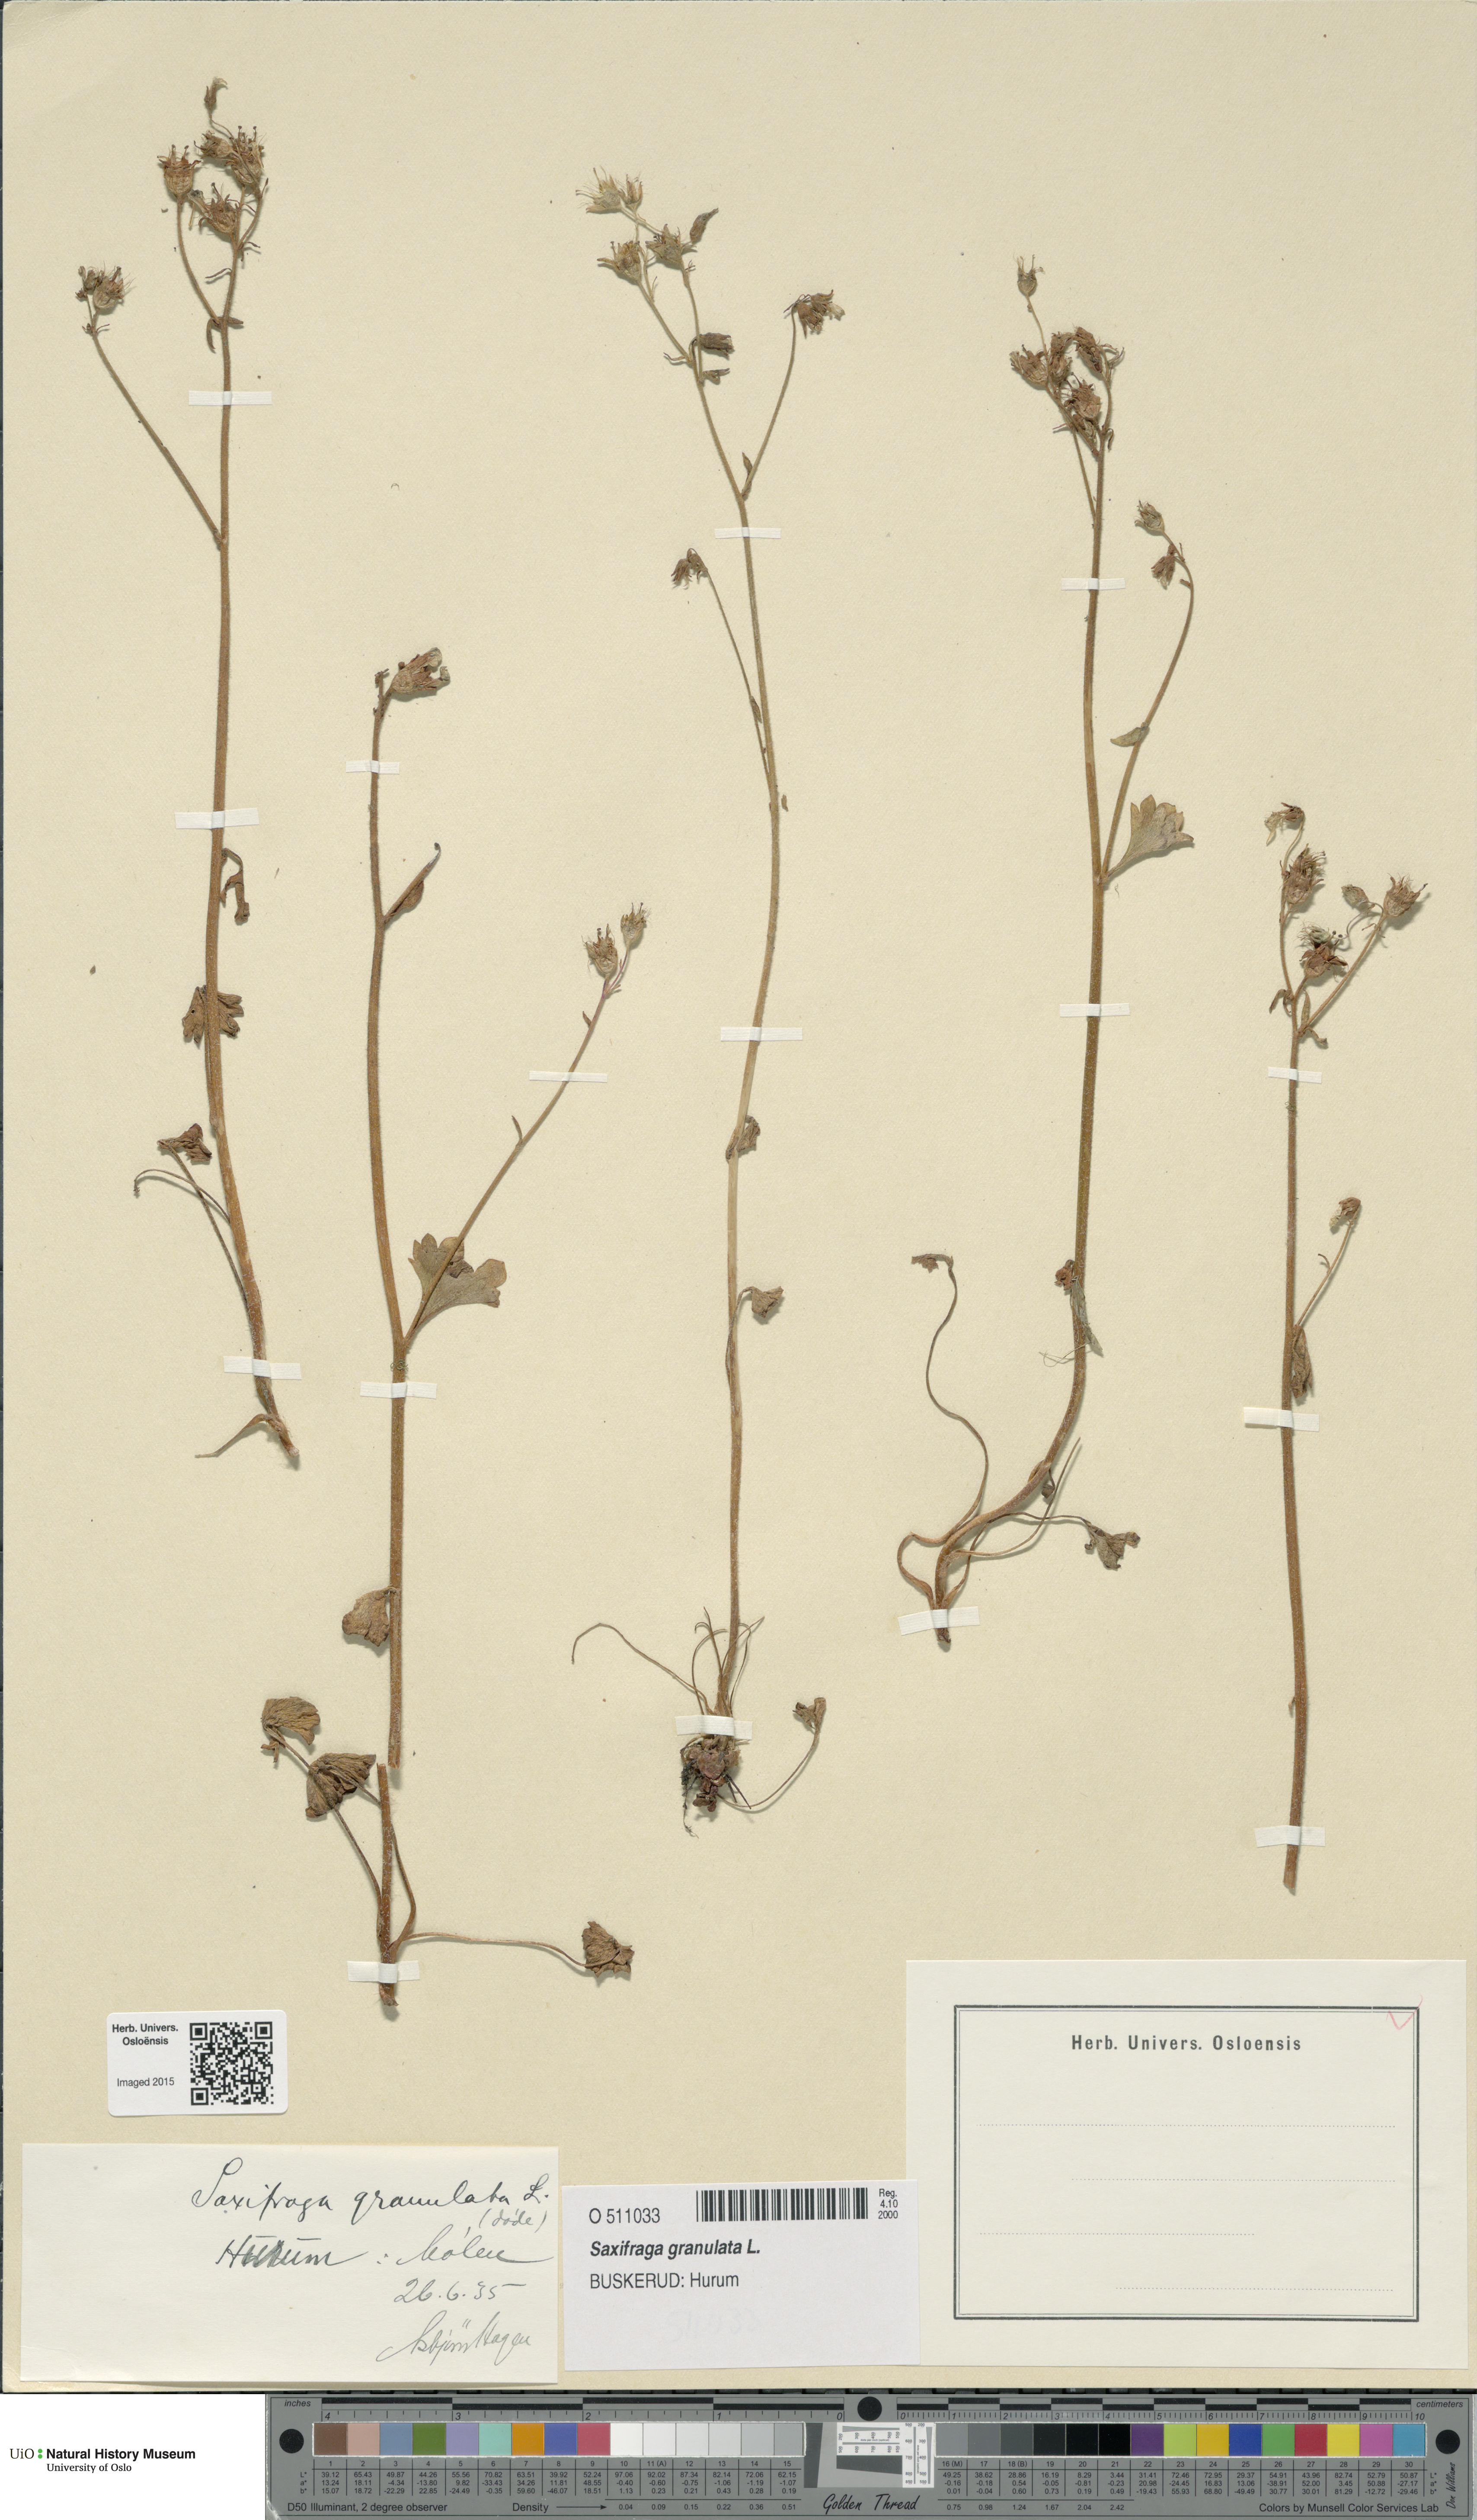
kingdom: Plantae
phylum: Tracheophyta
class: Magnoliopsida
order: Saxifragales
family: Saxifragaceae
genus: Saxifraga
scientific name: Saxifraga granulata
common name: Meadow saxifrage
